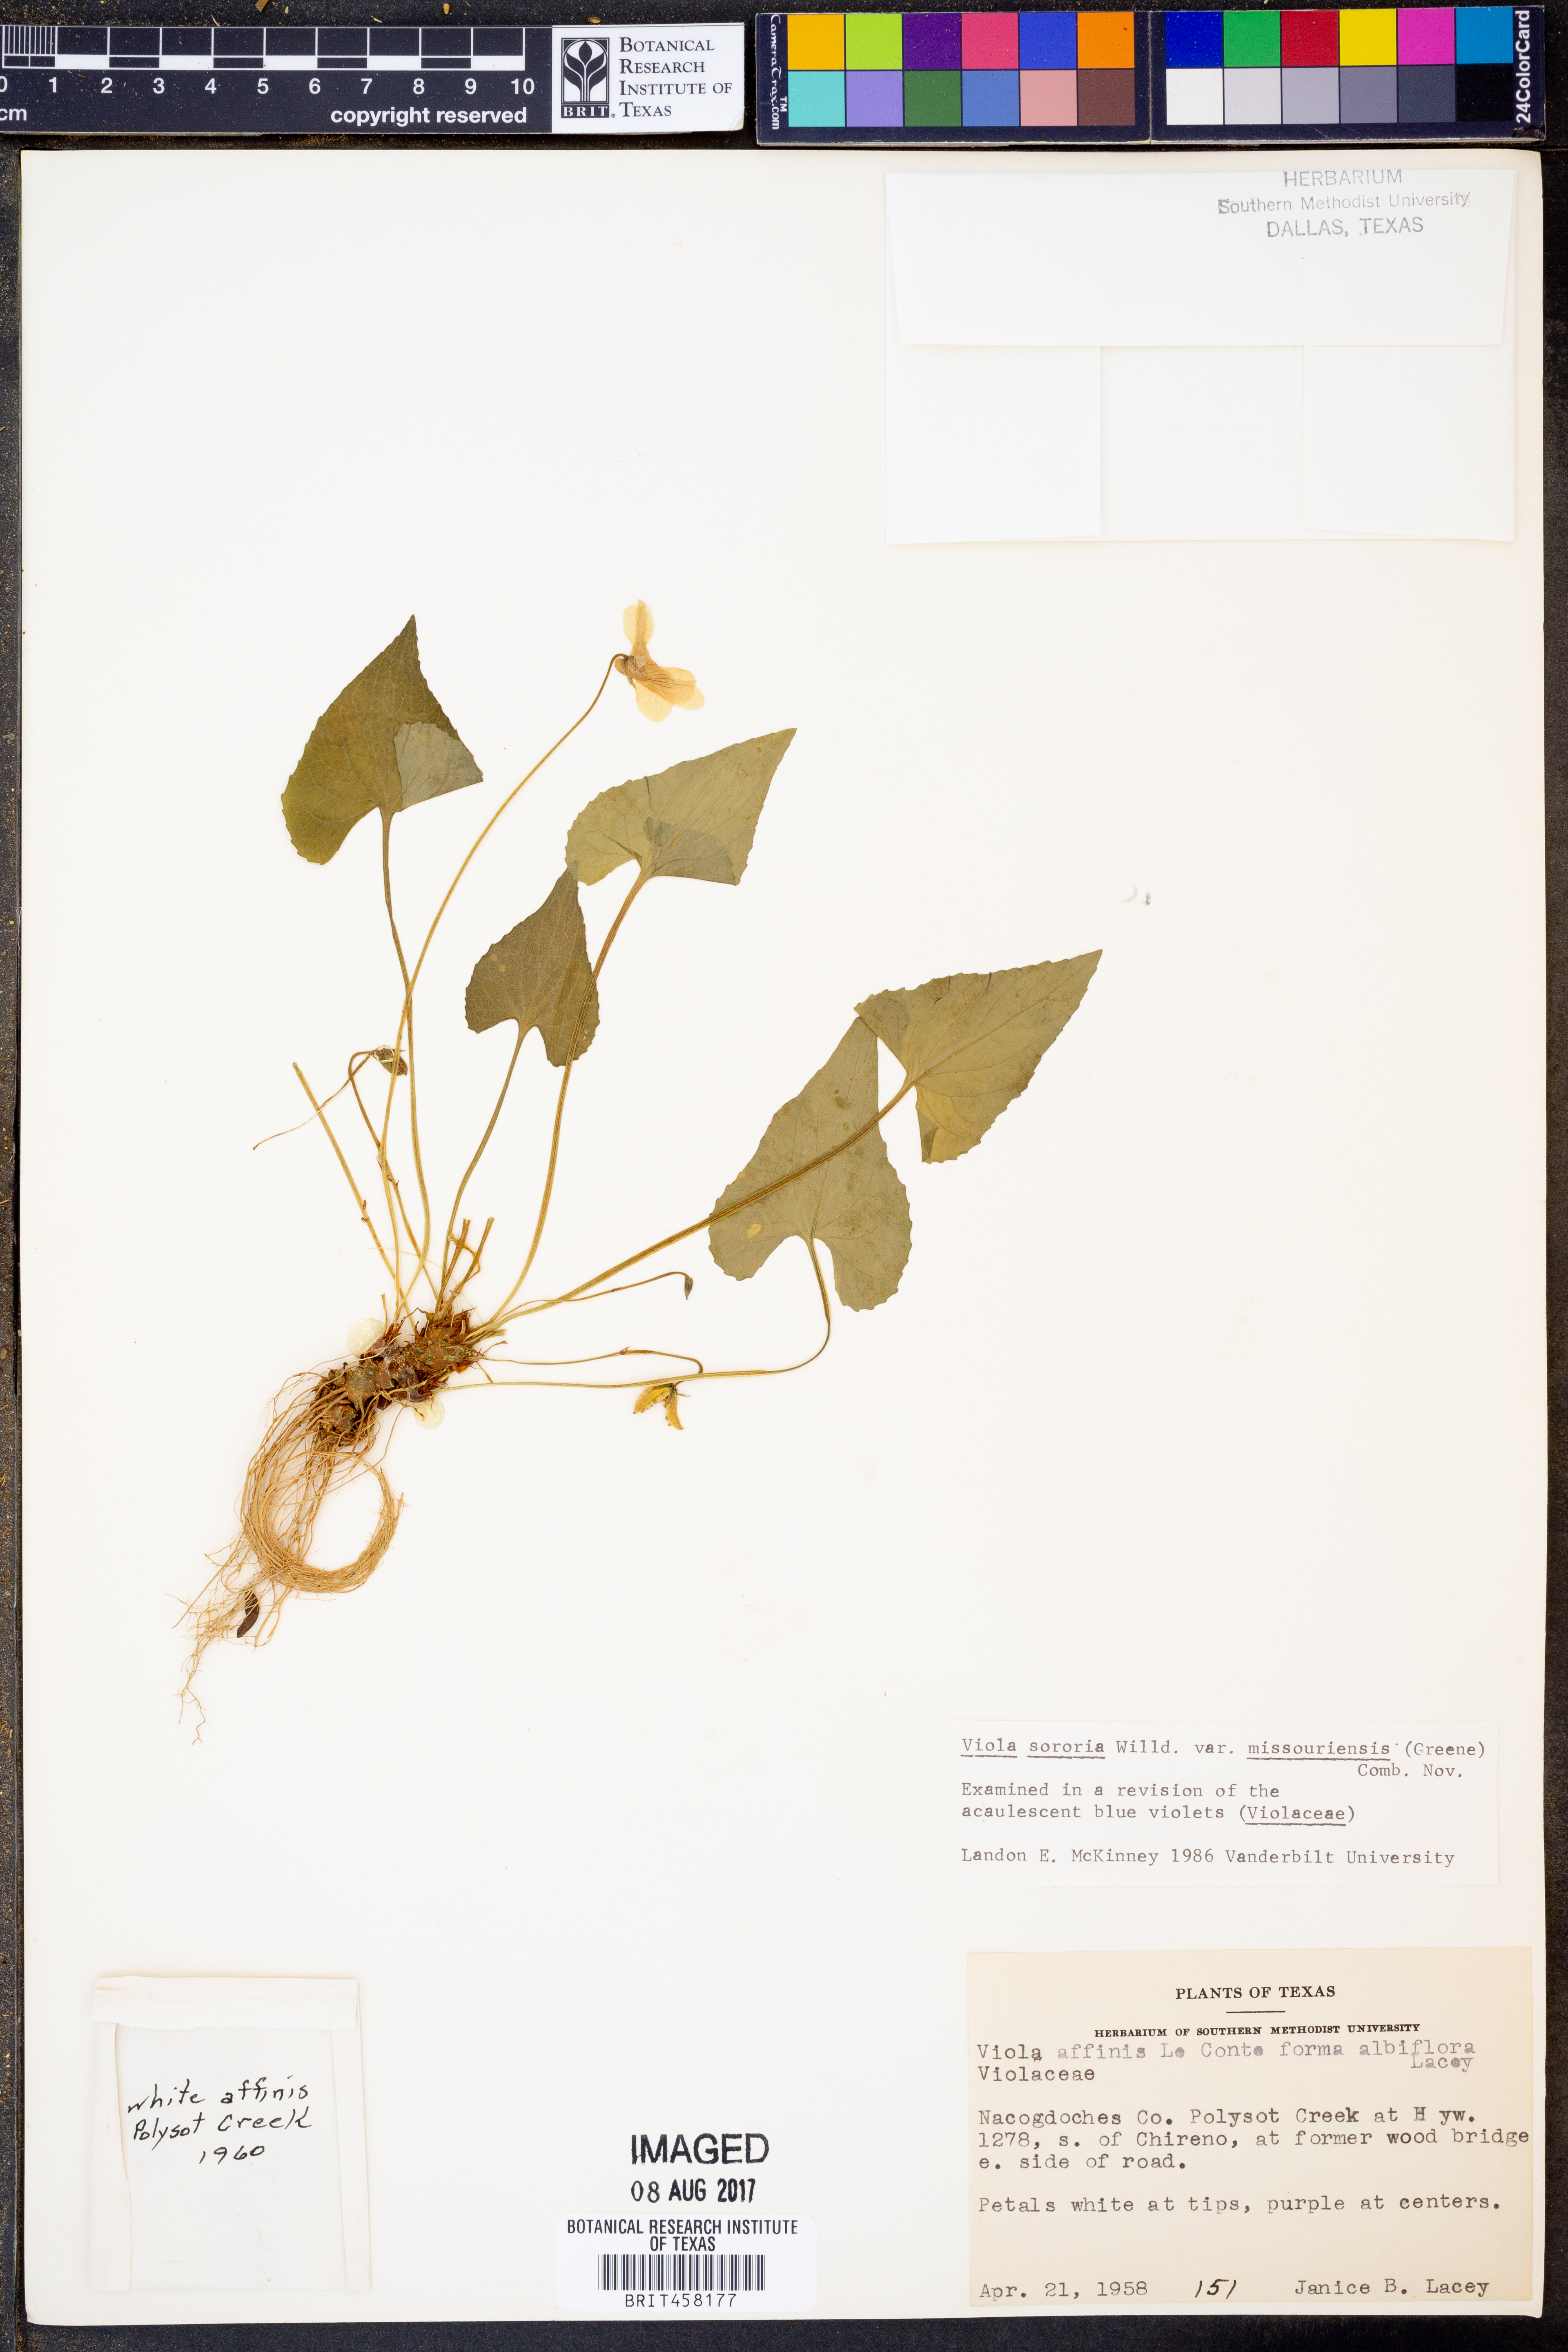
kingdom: Plantae
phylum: Tracheophyta
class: Magnoliopsida
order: Malpighiales
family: Violaceae
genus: Viola
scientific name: Viola missouriensis
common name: Missouri violet
